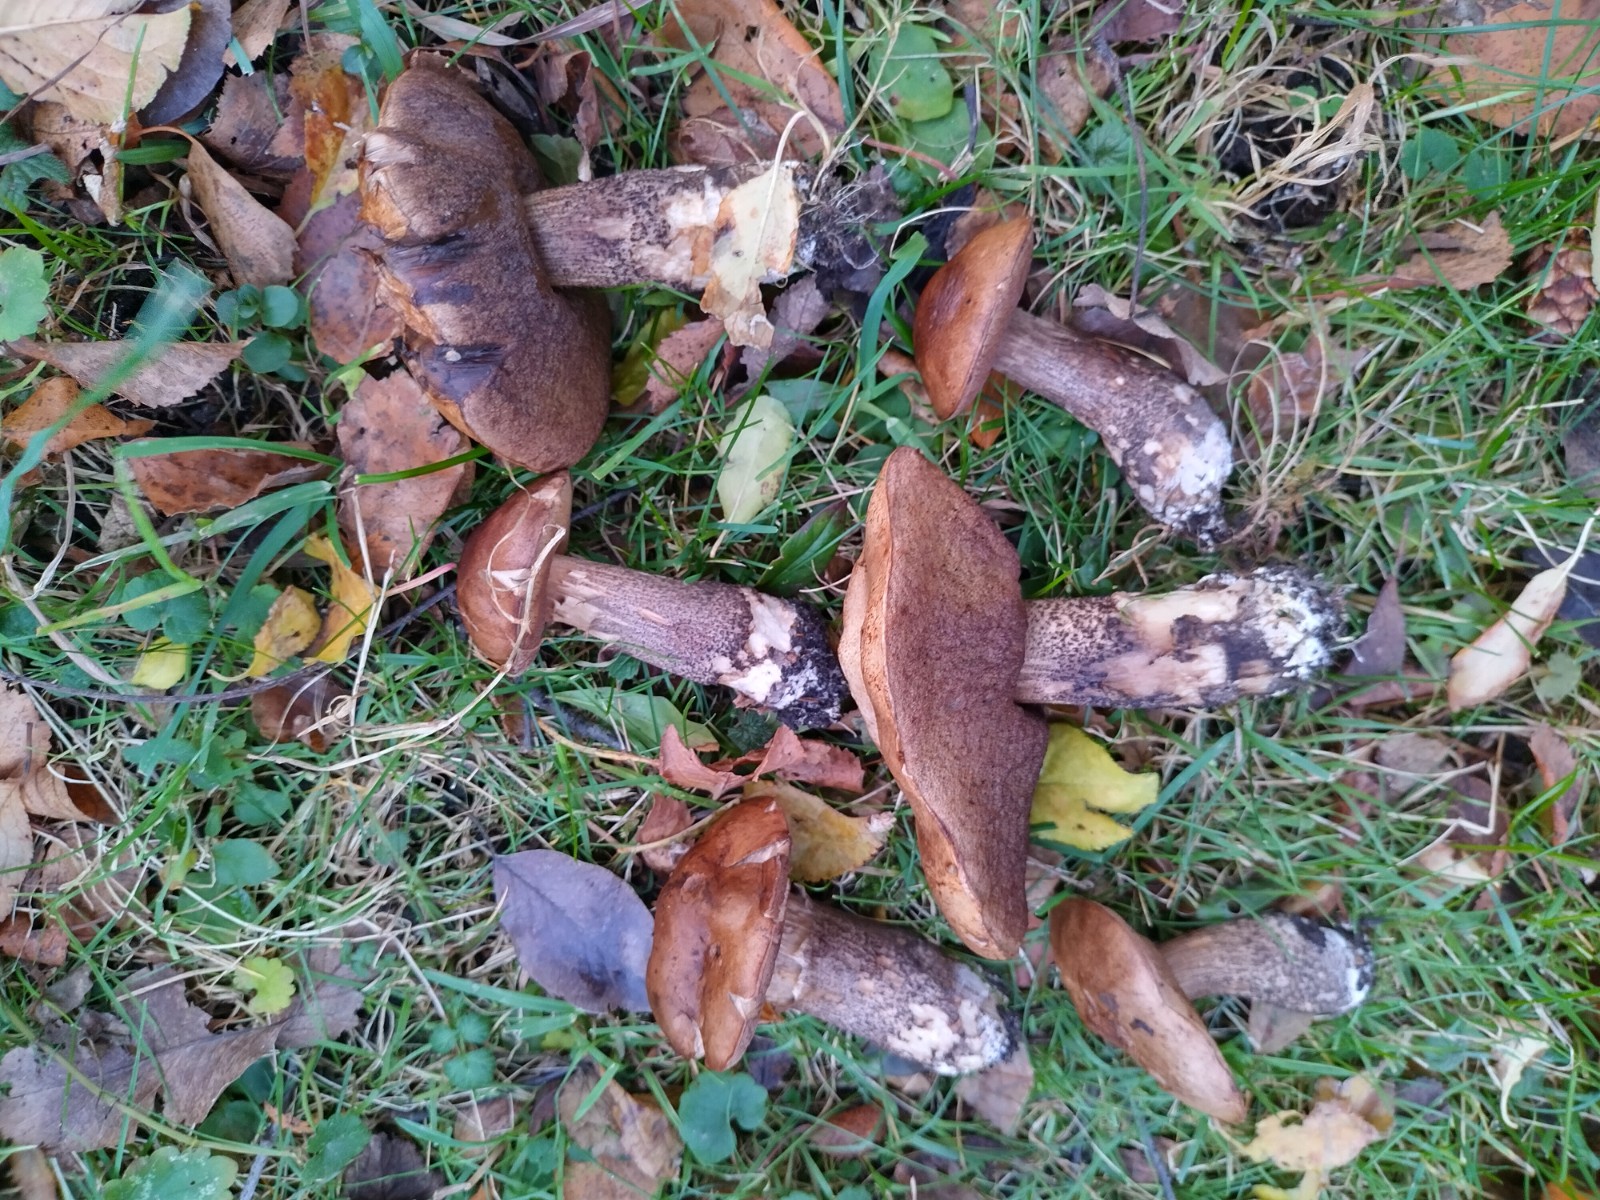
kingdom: Fungi
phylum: Basidiomycota
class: Agaricomycetes
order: Boletales
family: Boletaceae
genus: Leccinum
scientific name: Leccinum scabrum
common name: brun skælrørhat
